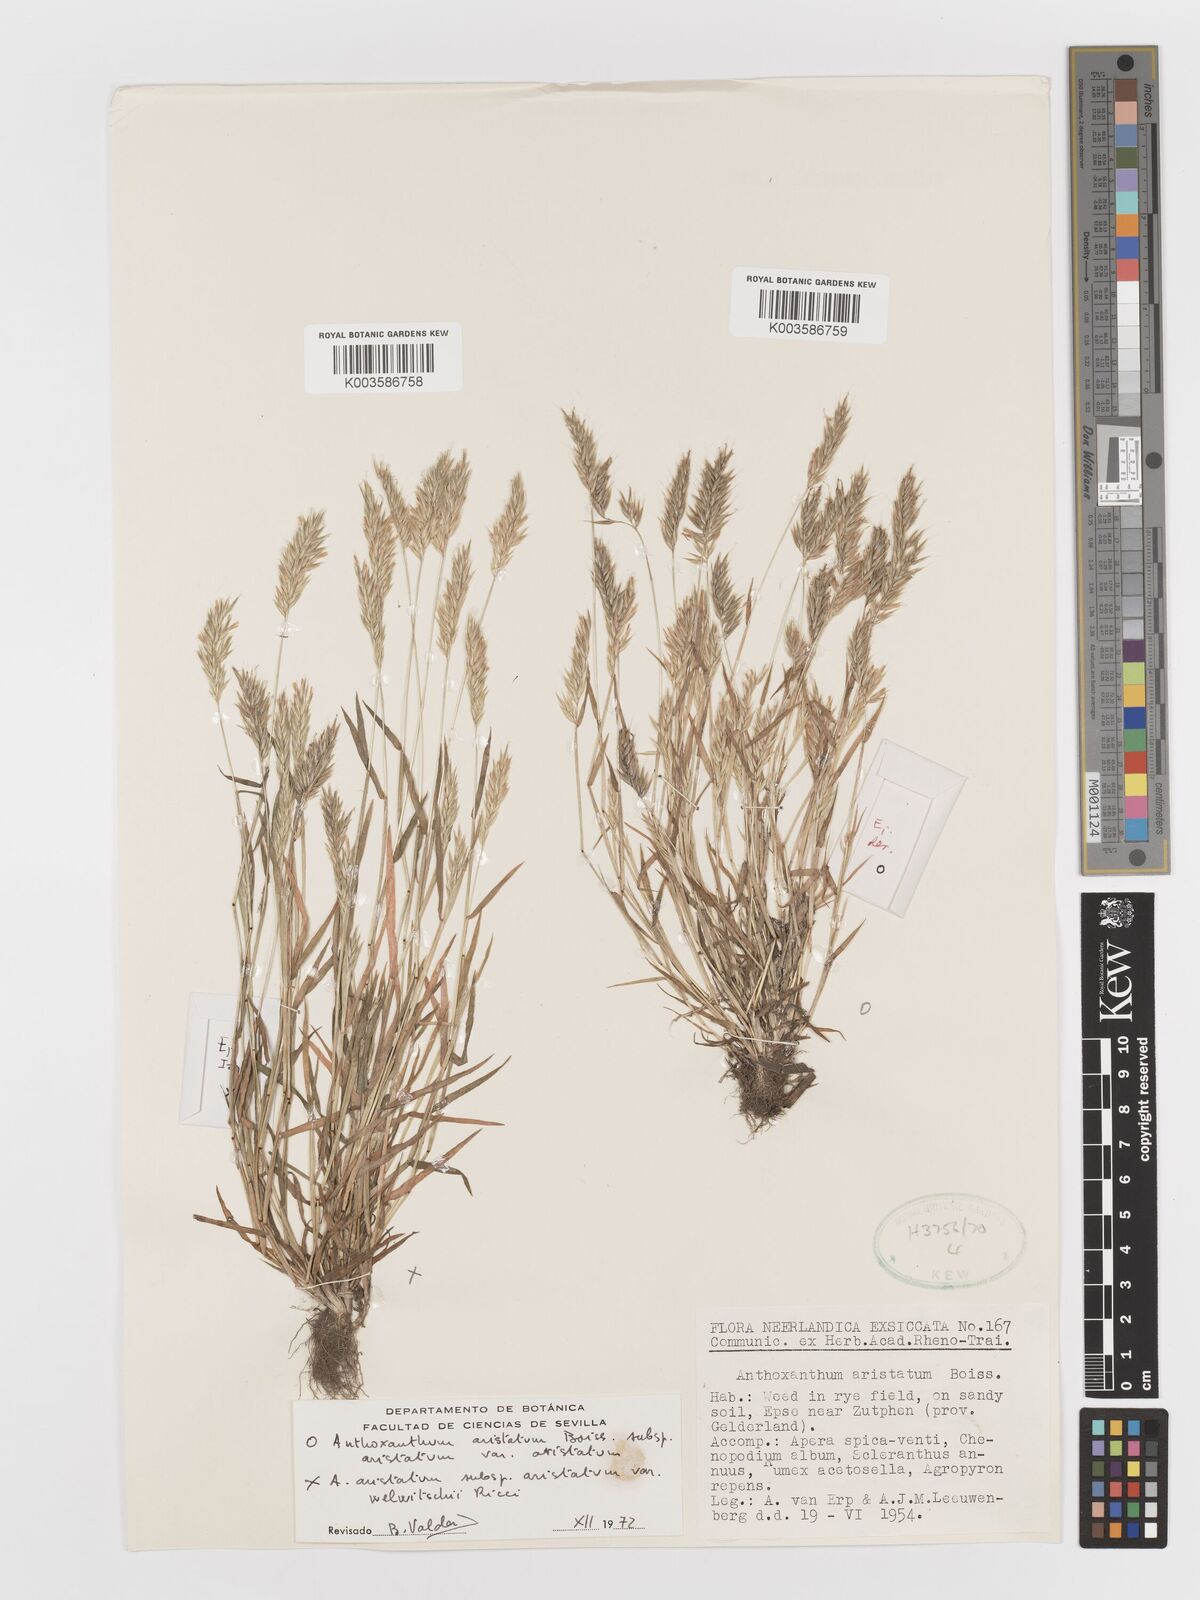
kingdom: Plantae
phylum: Tracheophyta
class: Liliopsida
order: Poales
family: Poaceae
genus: Anthoxanthum
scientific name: Anthoxanthum aristatum
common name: Annual vernal-grass
